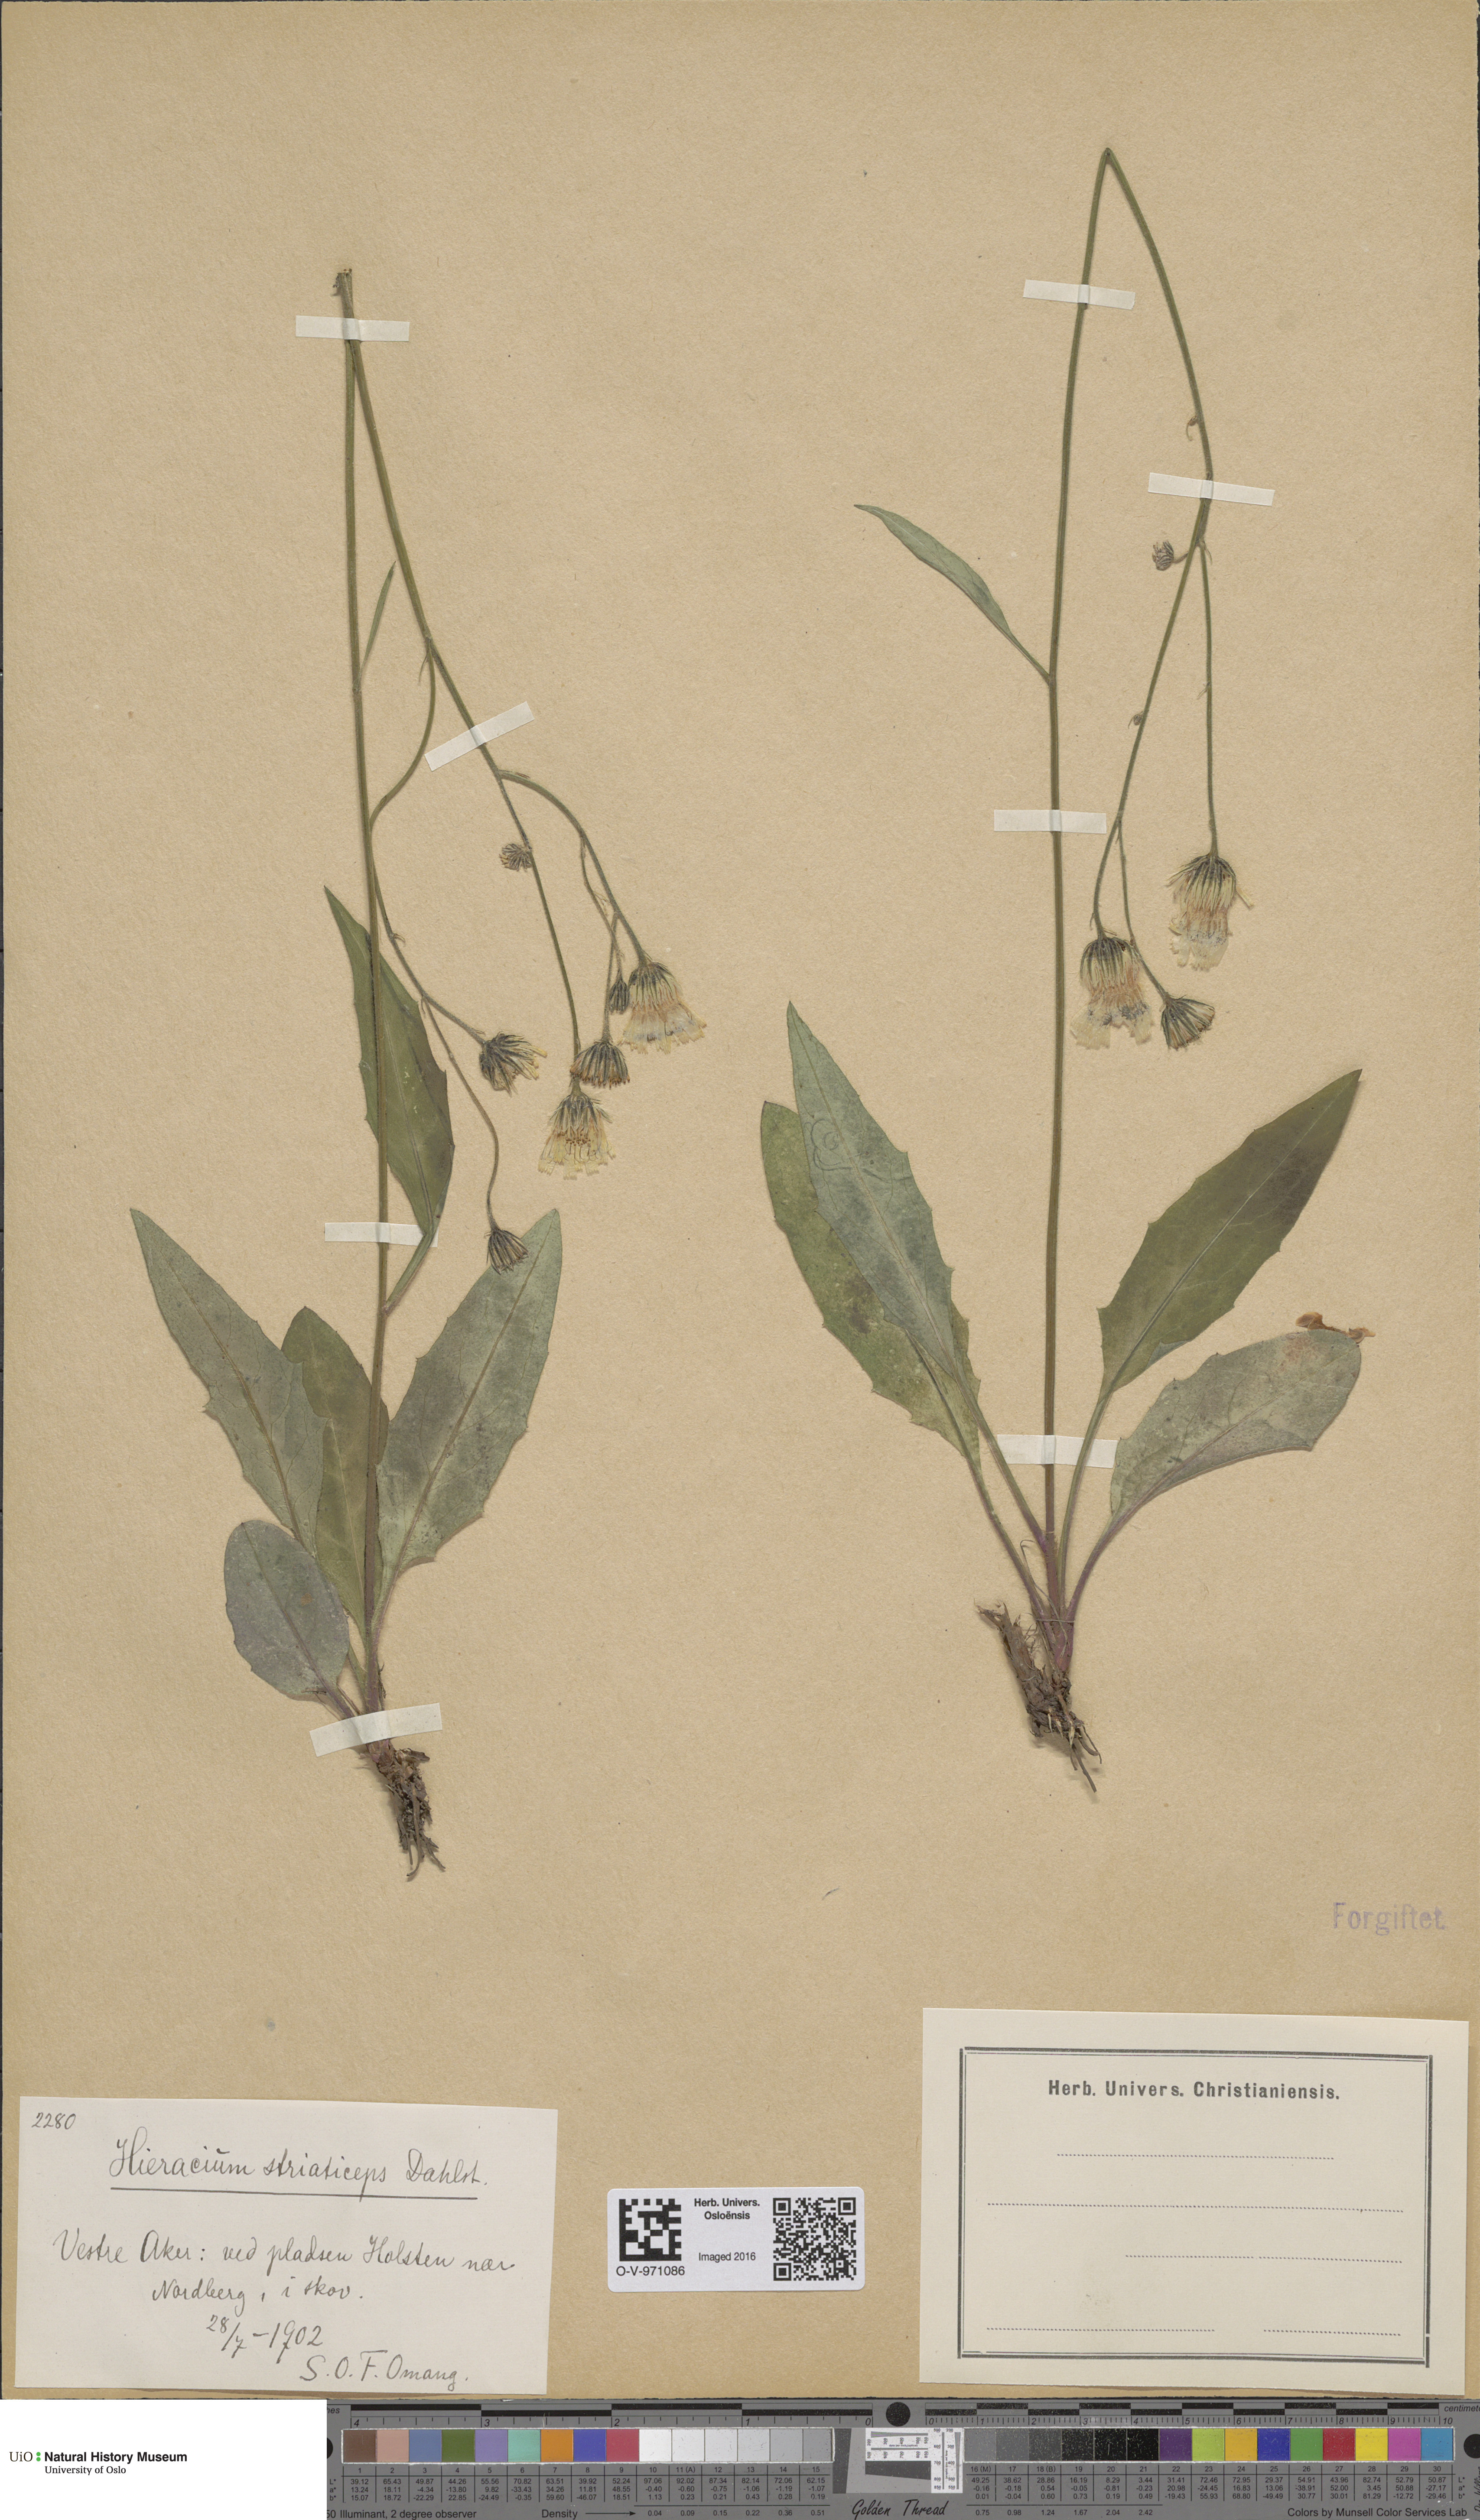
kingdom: Plantae
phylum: Tracheophyta
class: Magnoliopsida
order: Asterales
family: Asteraceae
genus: Hieracium
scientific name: Hieracium
